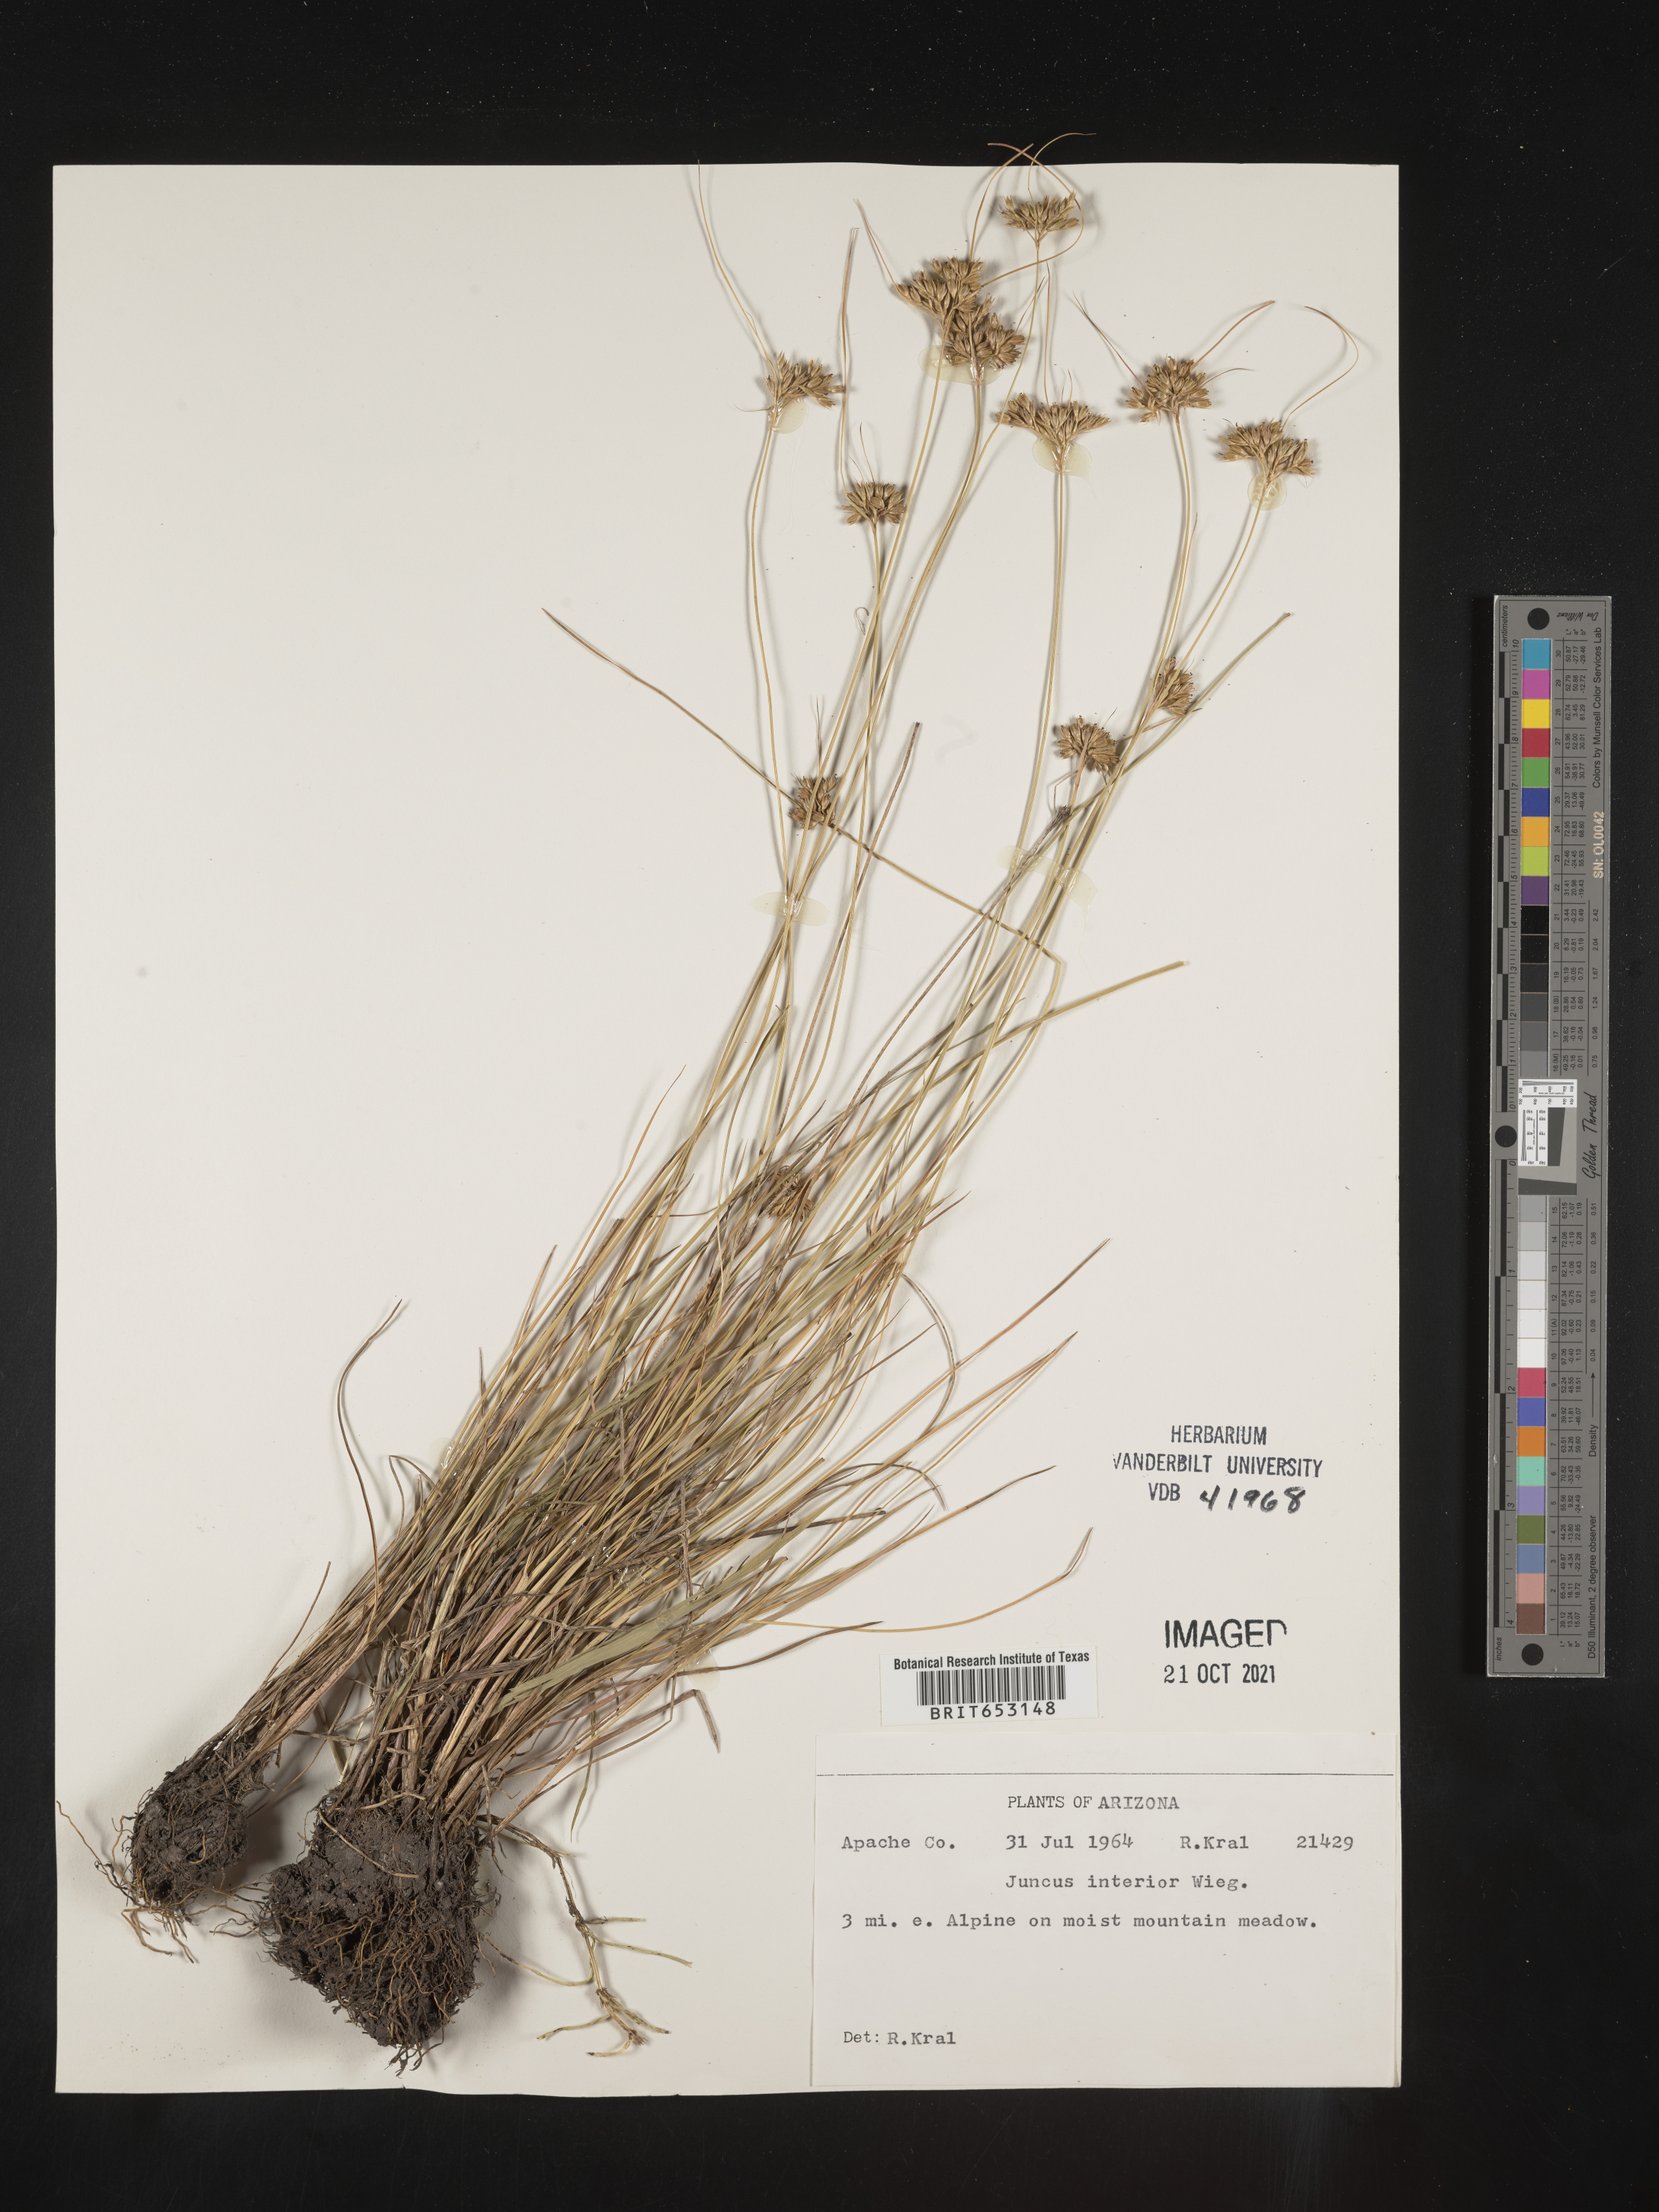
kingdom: Plantae
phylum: Tracheophyta
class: Liliopsida
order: Poales
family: Juncaceae
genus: Juncus
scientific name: Juncus interior
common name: Interior rush
